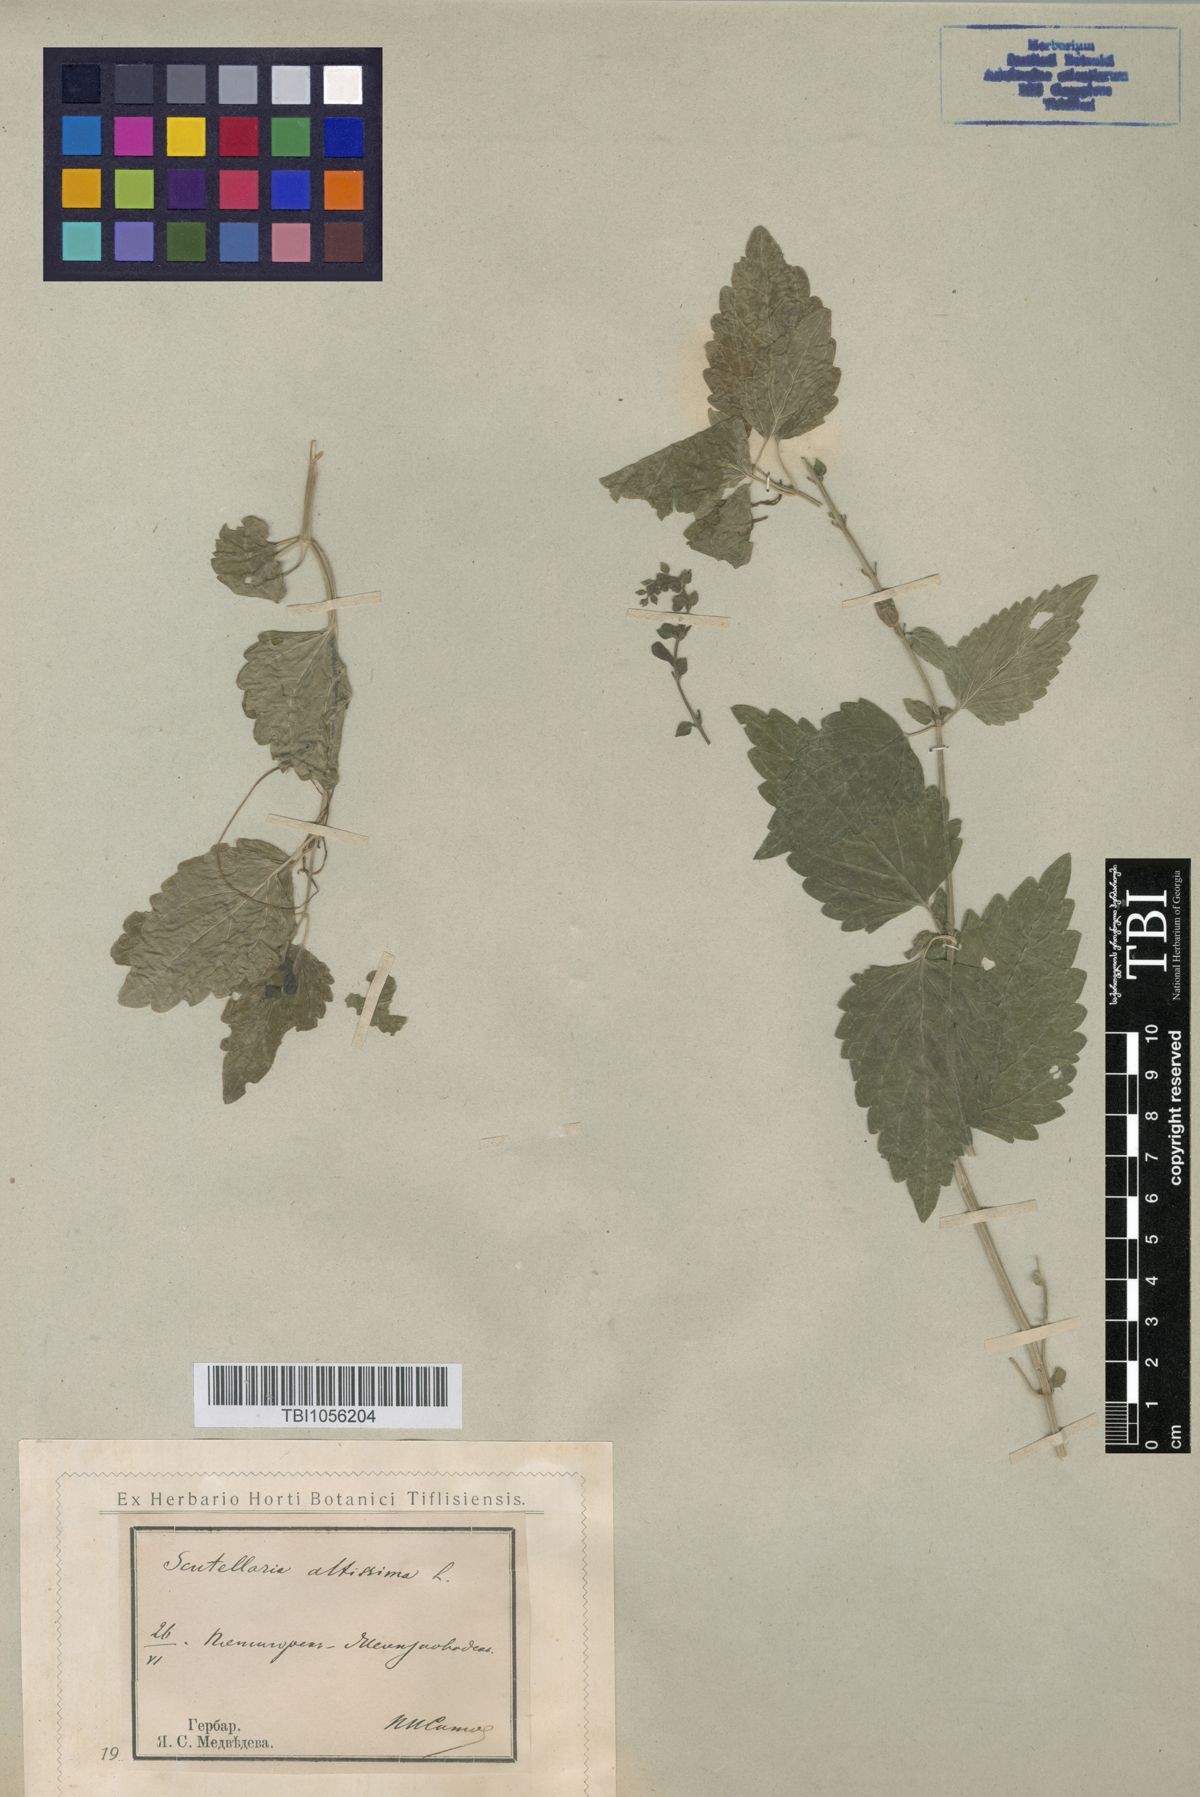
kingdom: Plantae
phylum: Tracheophyta
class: Magnoliopsida
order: Lamiales
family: Lamiaceae
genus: Scutellaria
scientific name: Scutellaria altissima
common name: Somerset skullcap
